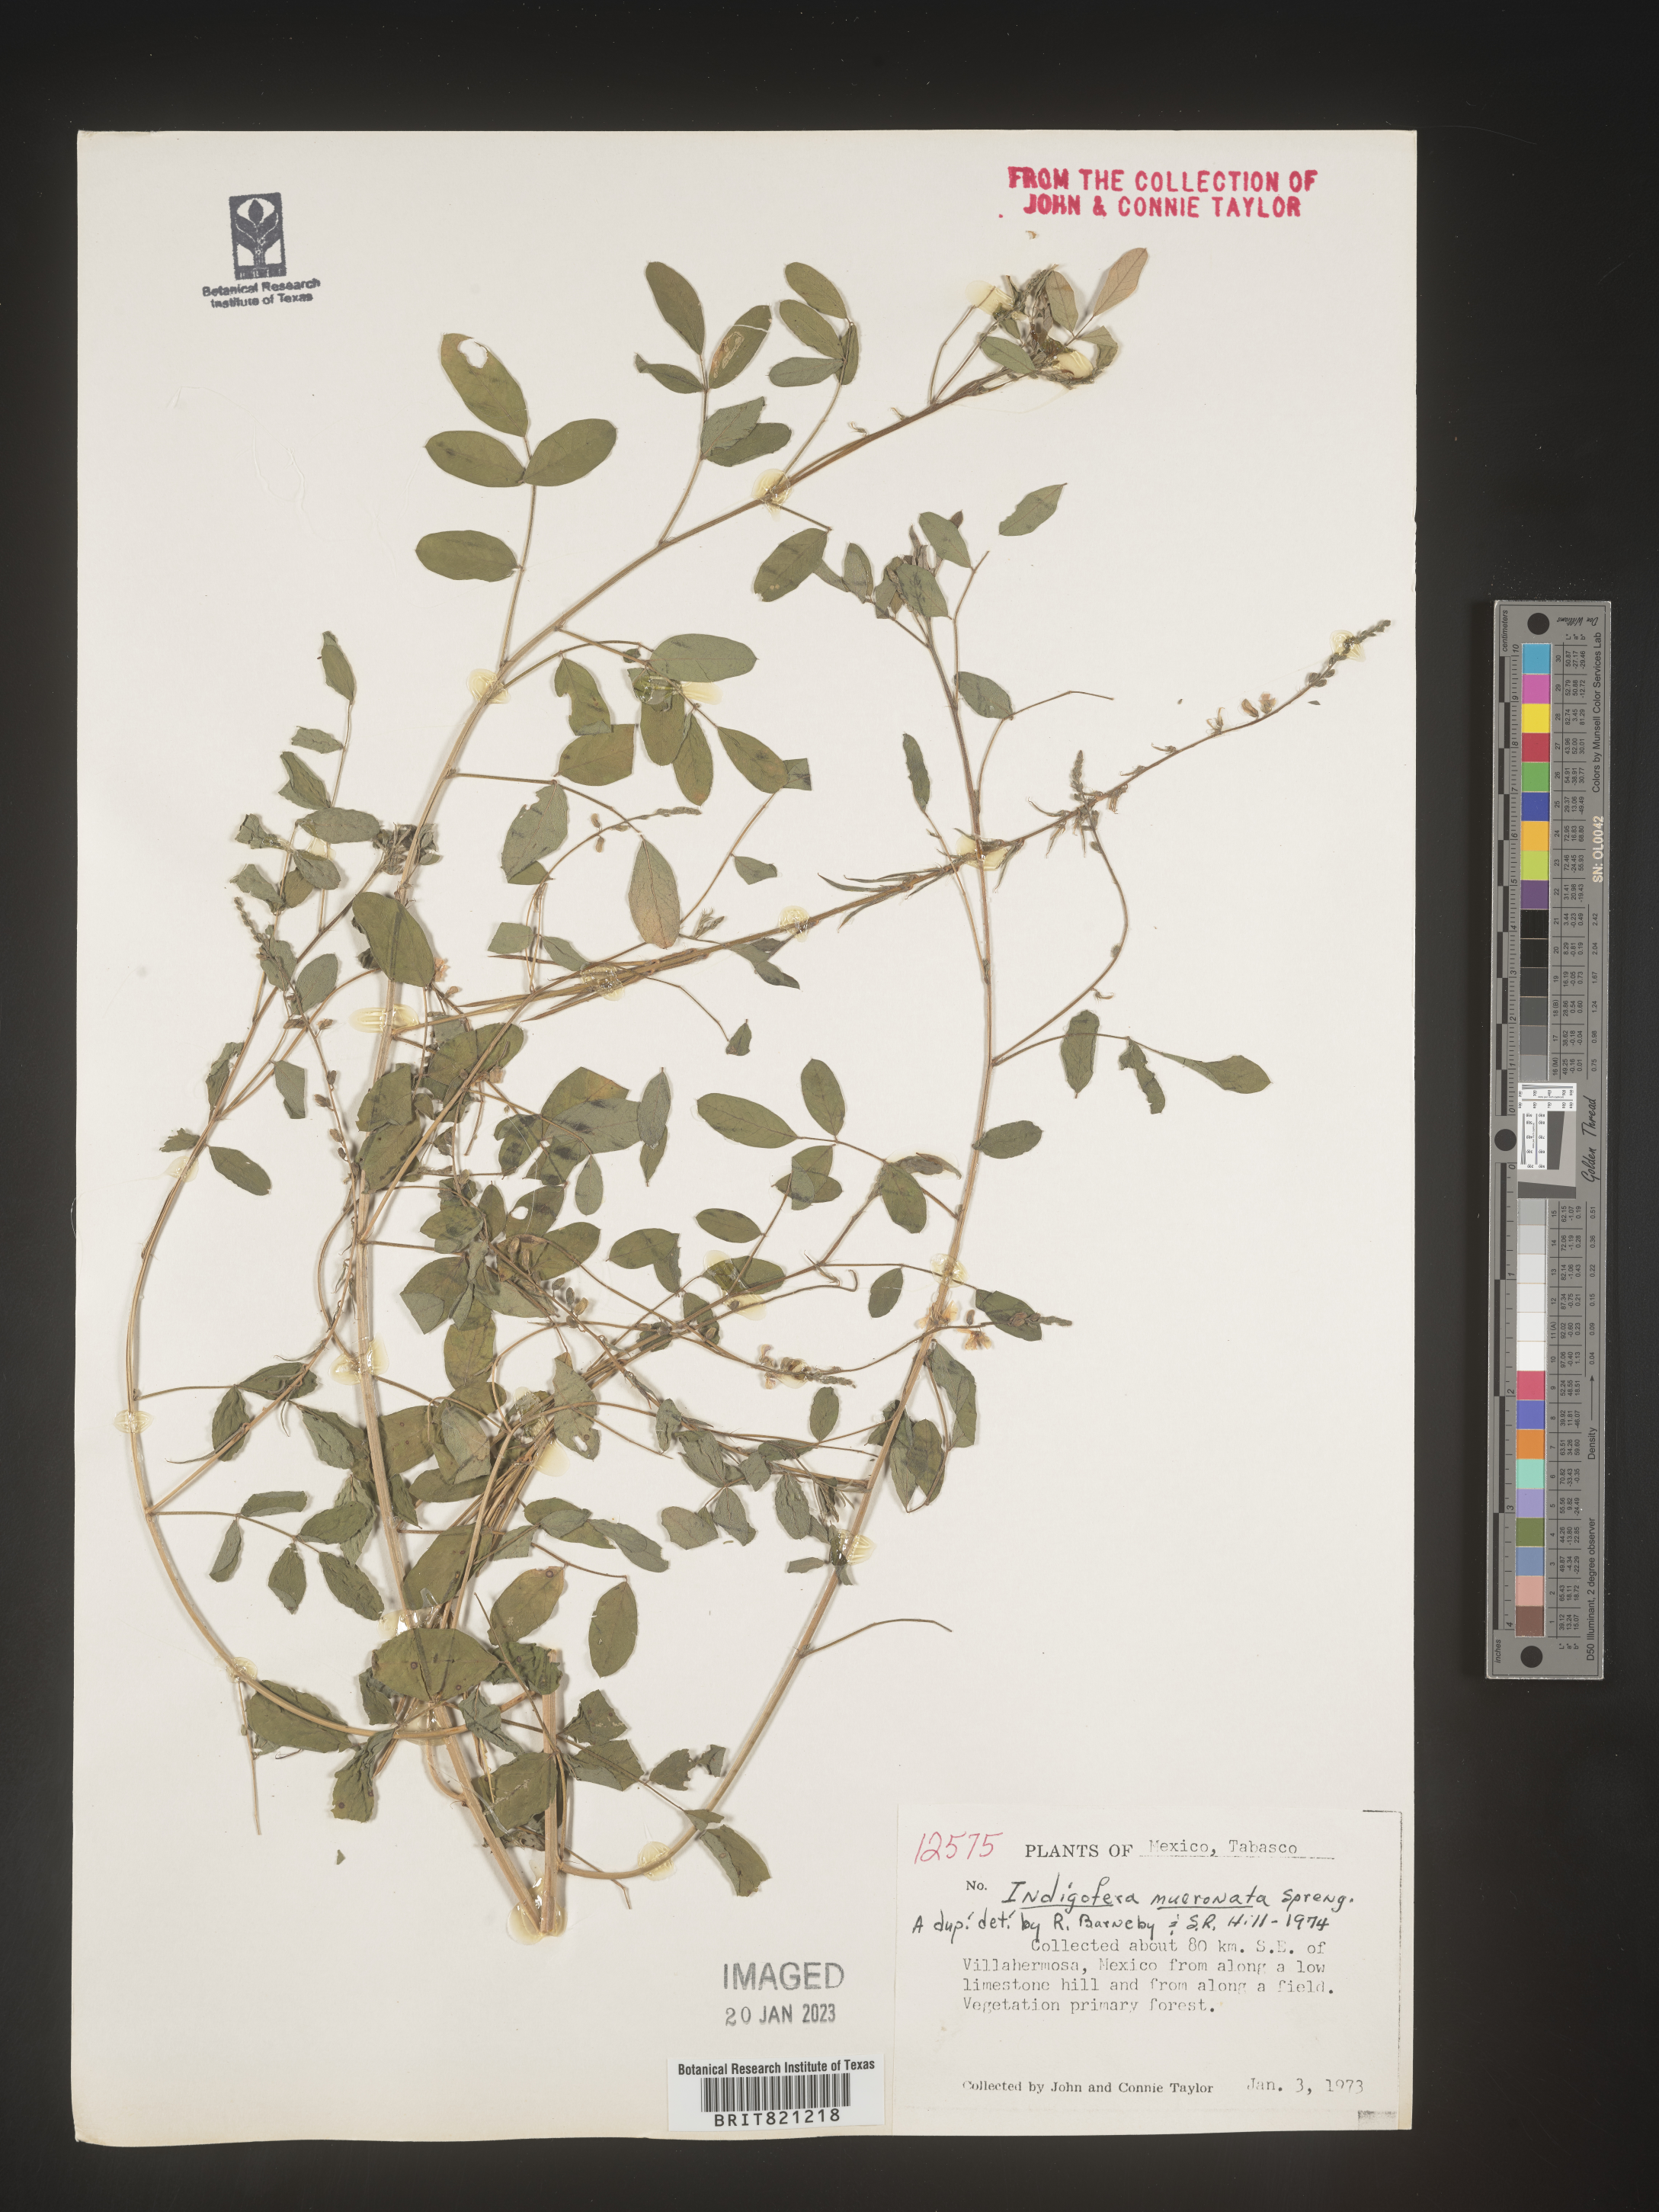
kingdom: Plantae
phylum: Tracheophyta
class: Magnoliopsida
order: Fabales
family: Fabaceae
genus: Indigofera
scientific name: Indigofera
